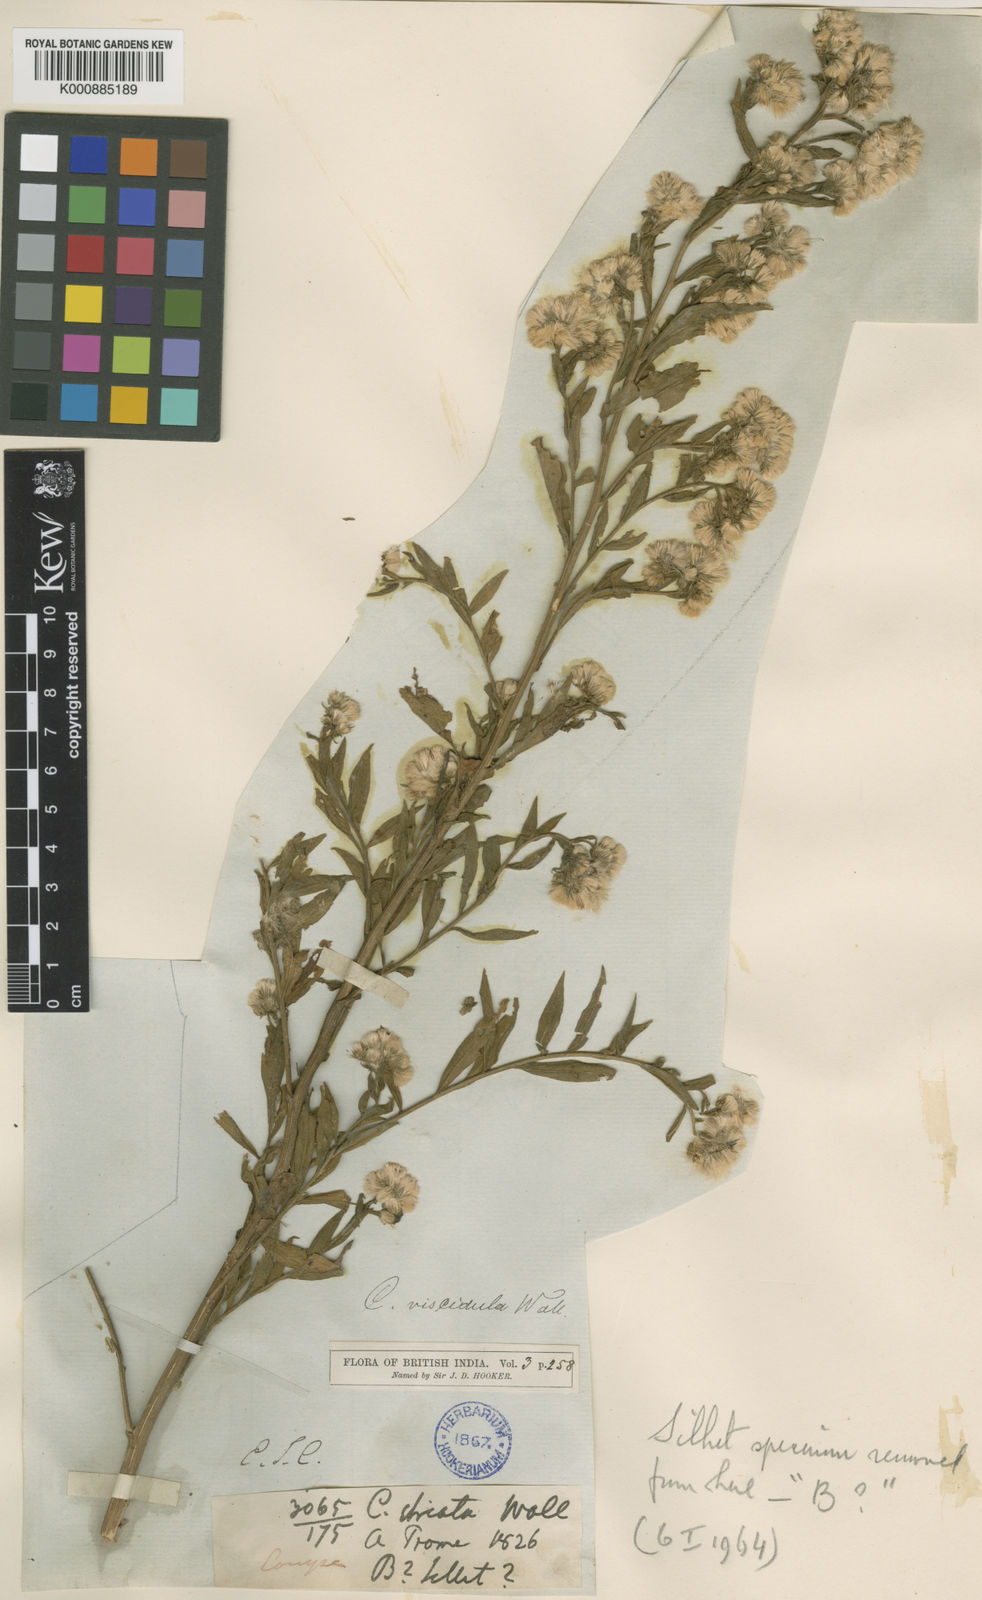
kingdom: Plantae
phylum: Tracheophyta
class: Magnoliopsida
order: Asterales
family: Asteraceae
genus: Eschenbachia
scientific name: Eschenbachia leucantha
